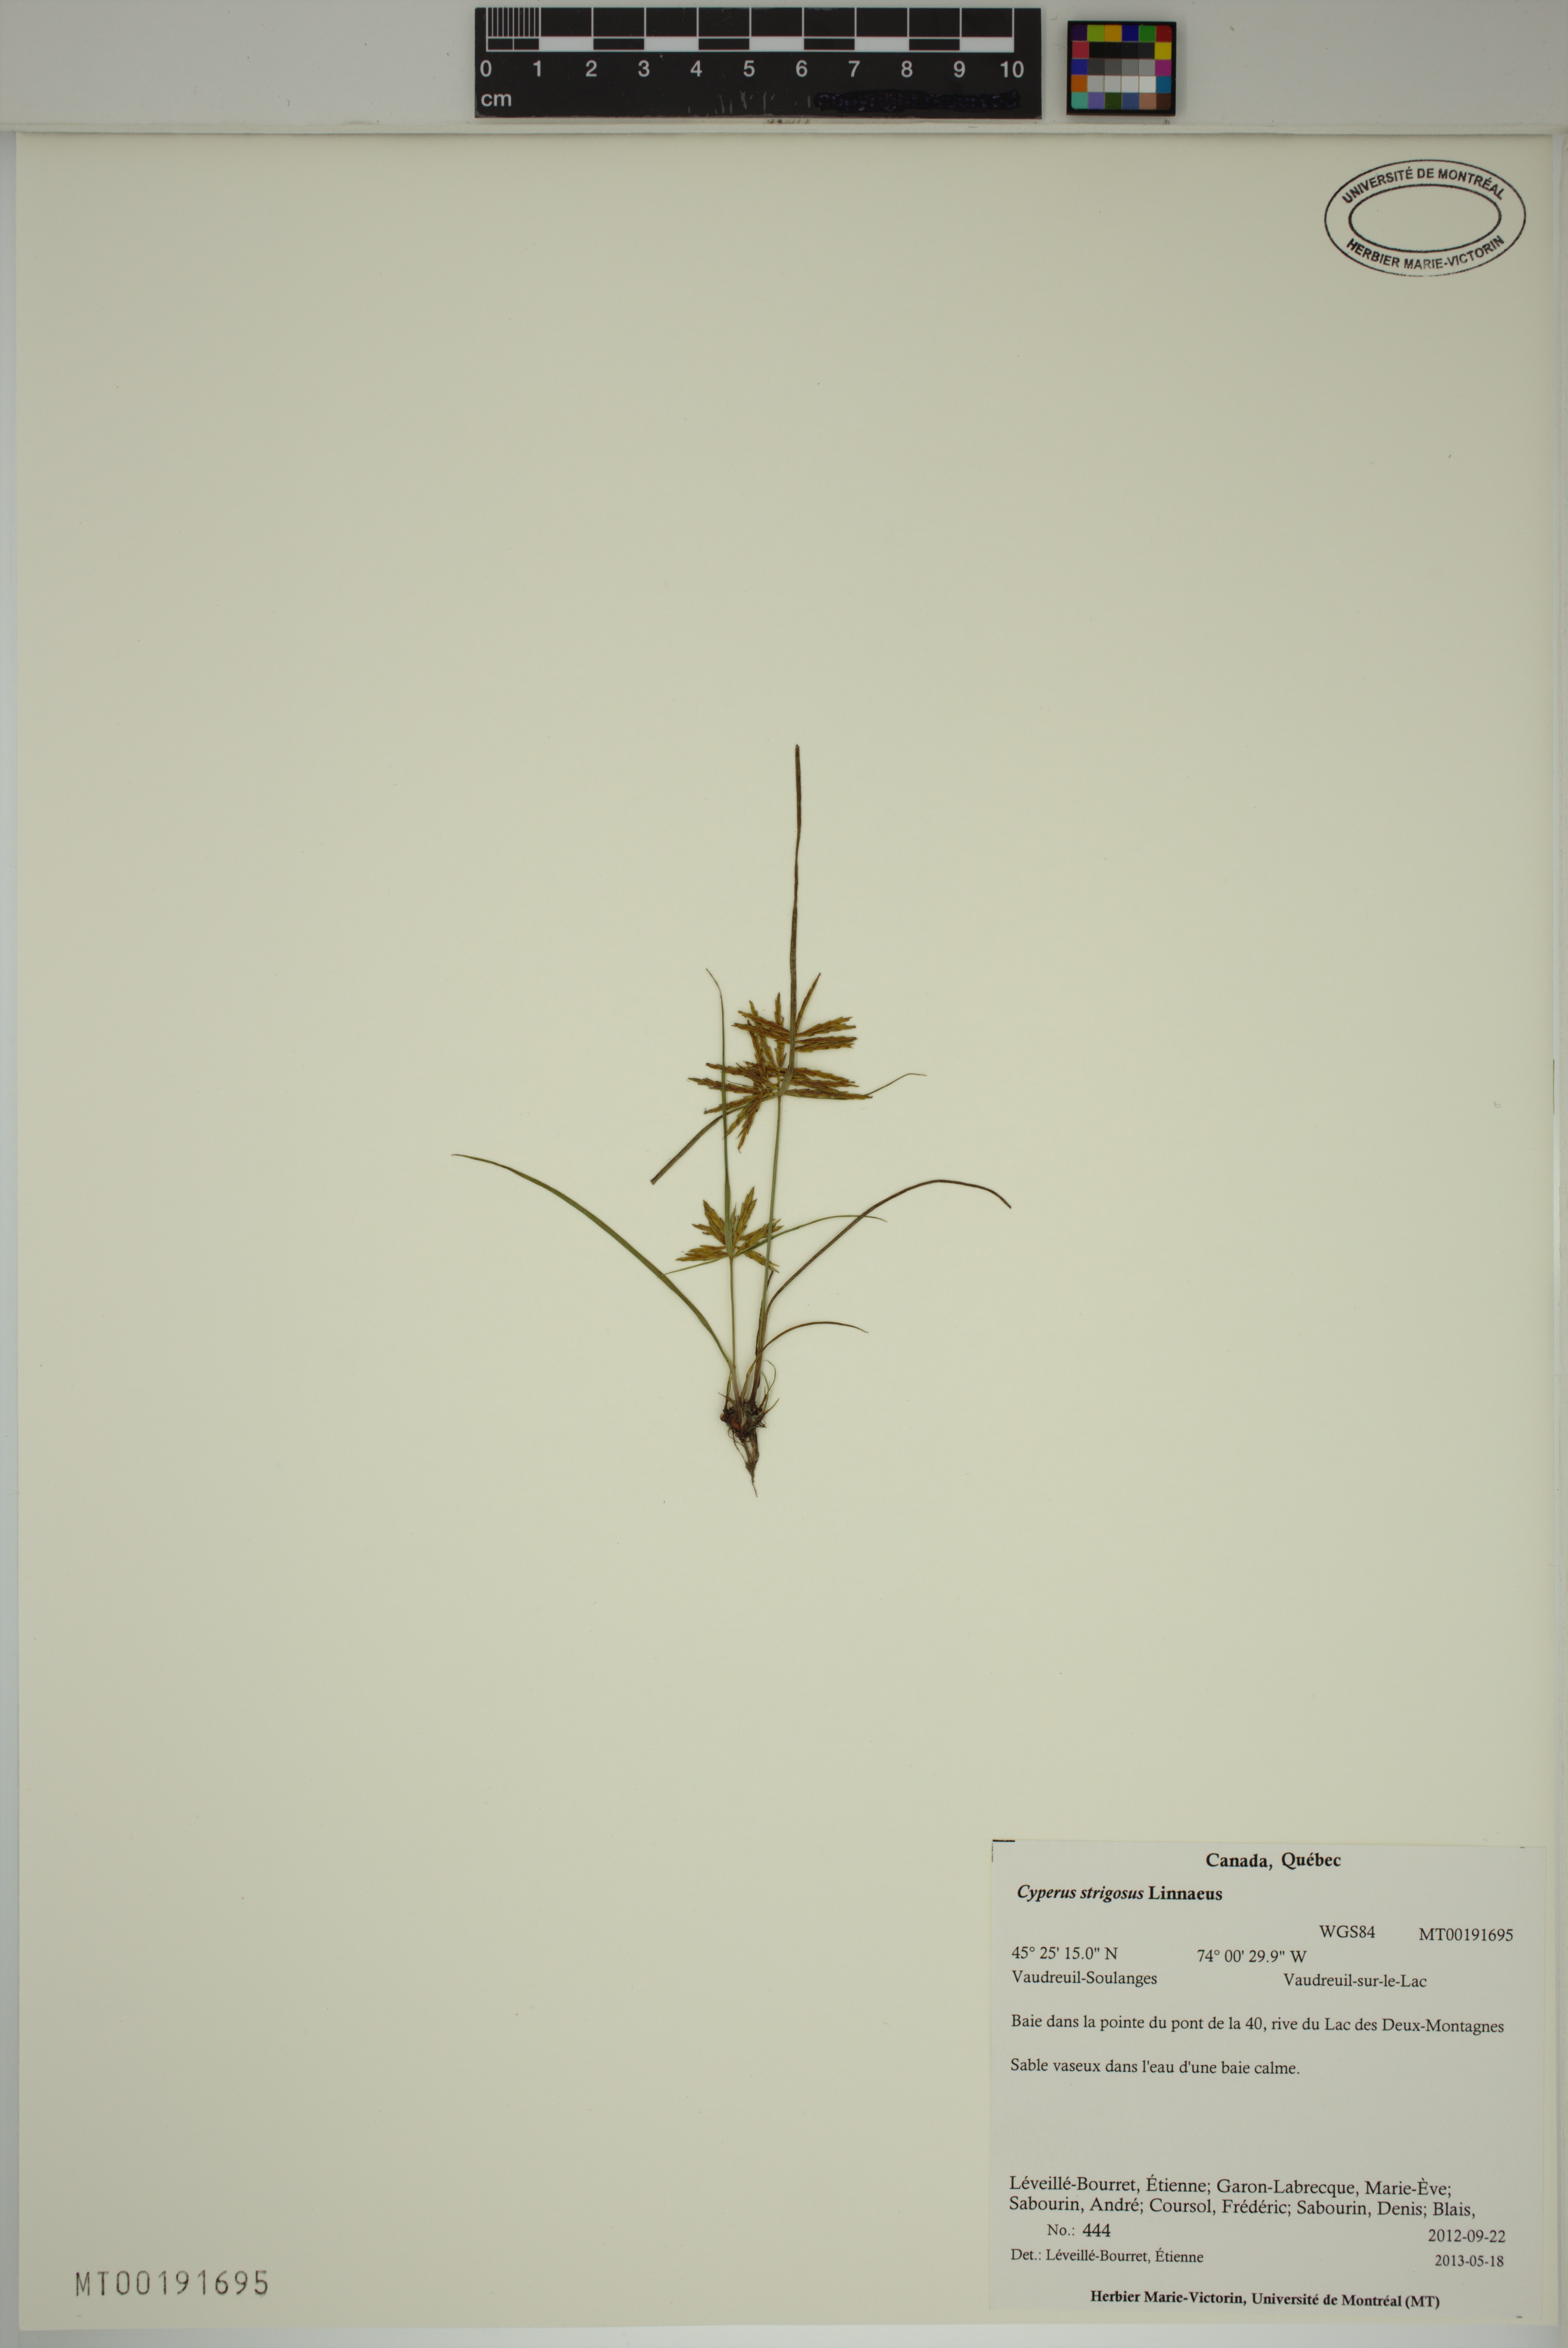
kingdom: Plantae
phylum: Tracheophyta
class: Liliopsida
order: Poales
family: Cyperaceae
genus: Cyperus
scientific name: Cyperus strigosus
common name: False nutsedge
